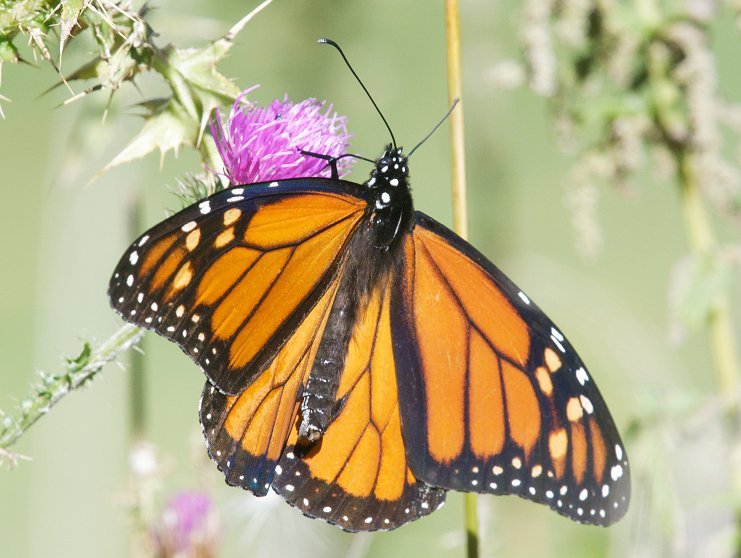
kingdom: Animalia
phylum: Arthropoda
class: Insecta
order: Lepidoptera
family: Nymphalidae
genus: Danaus
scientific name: Danaus plexippus
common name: Monarch
